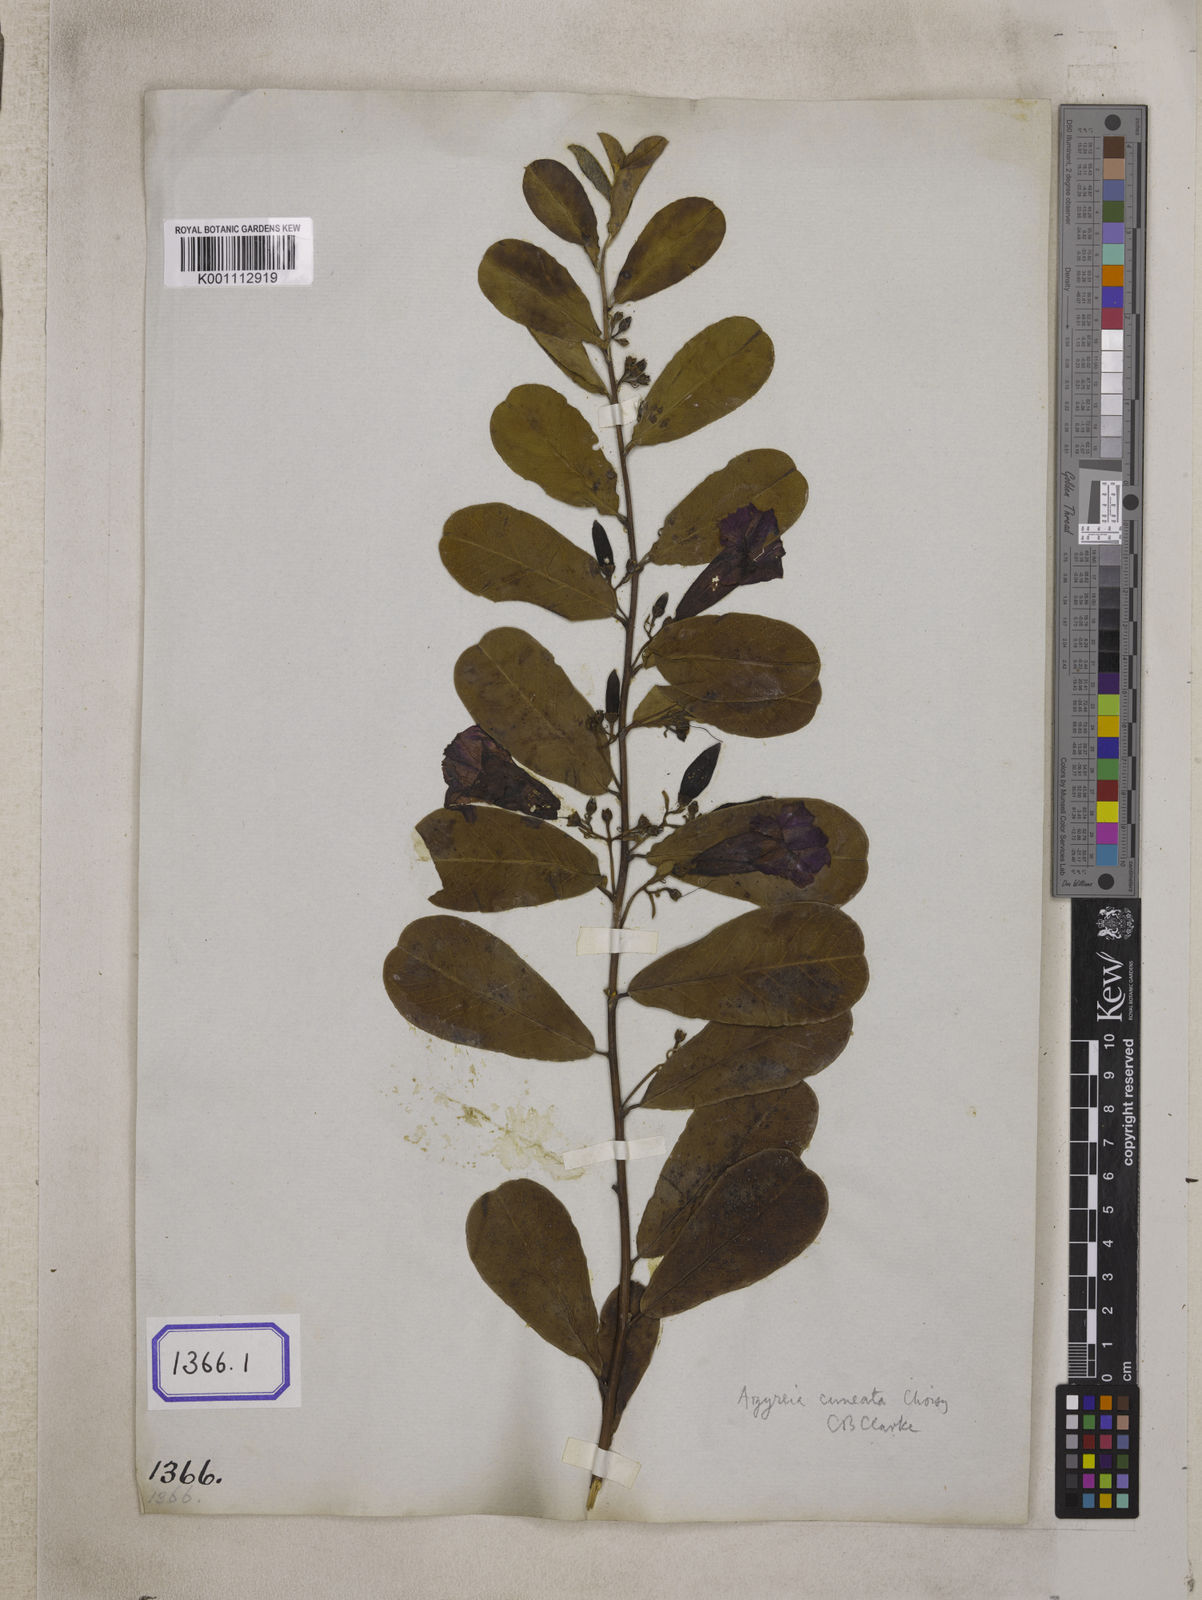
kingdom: Plantae
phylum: Tracheophyta
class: Magnoliopsida
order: Solanales
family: Convolvulaceae
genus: Convolvulus
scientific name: Convolvulus
